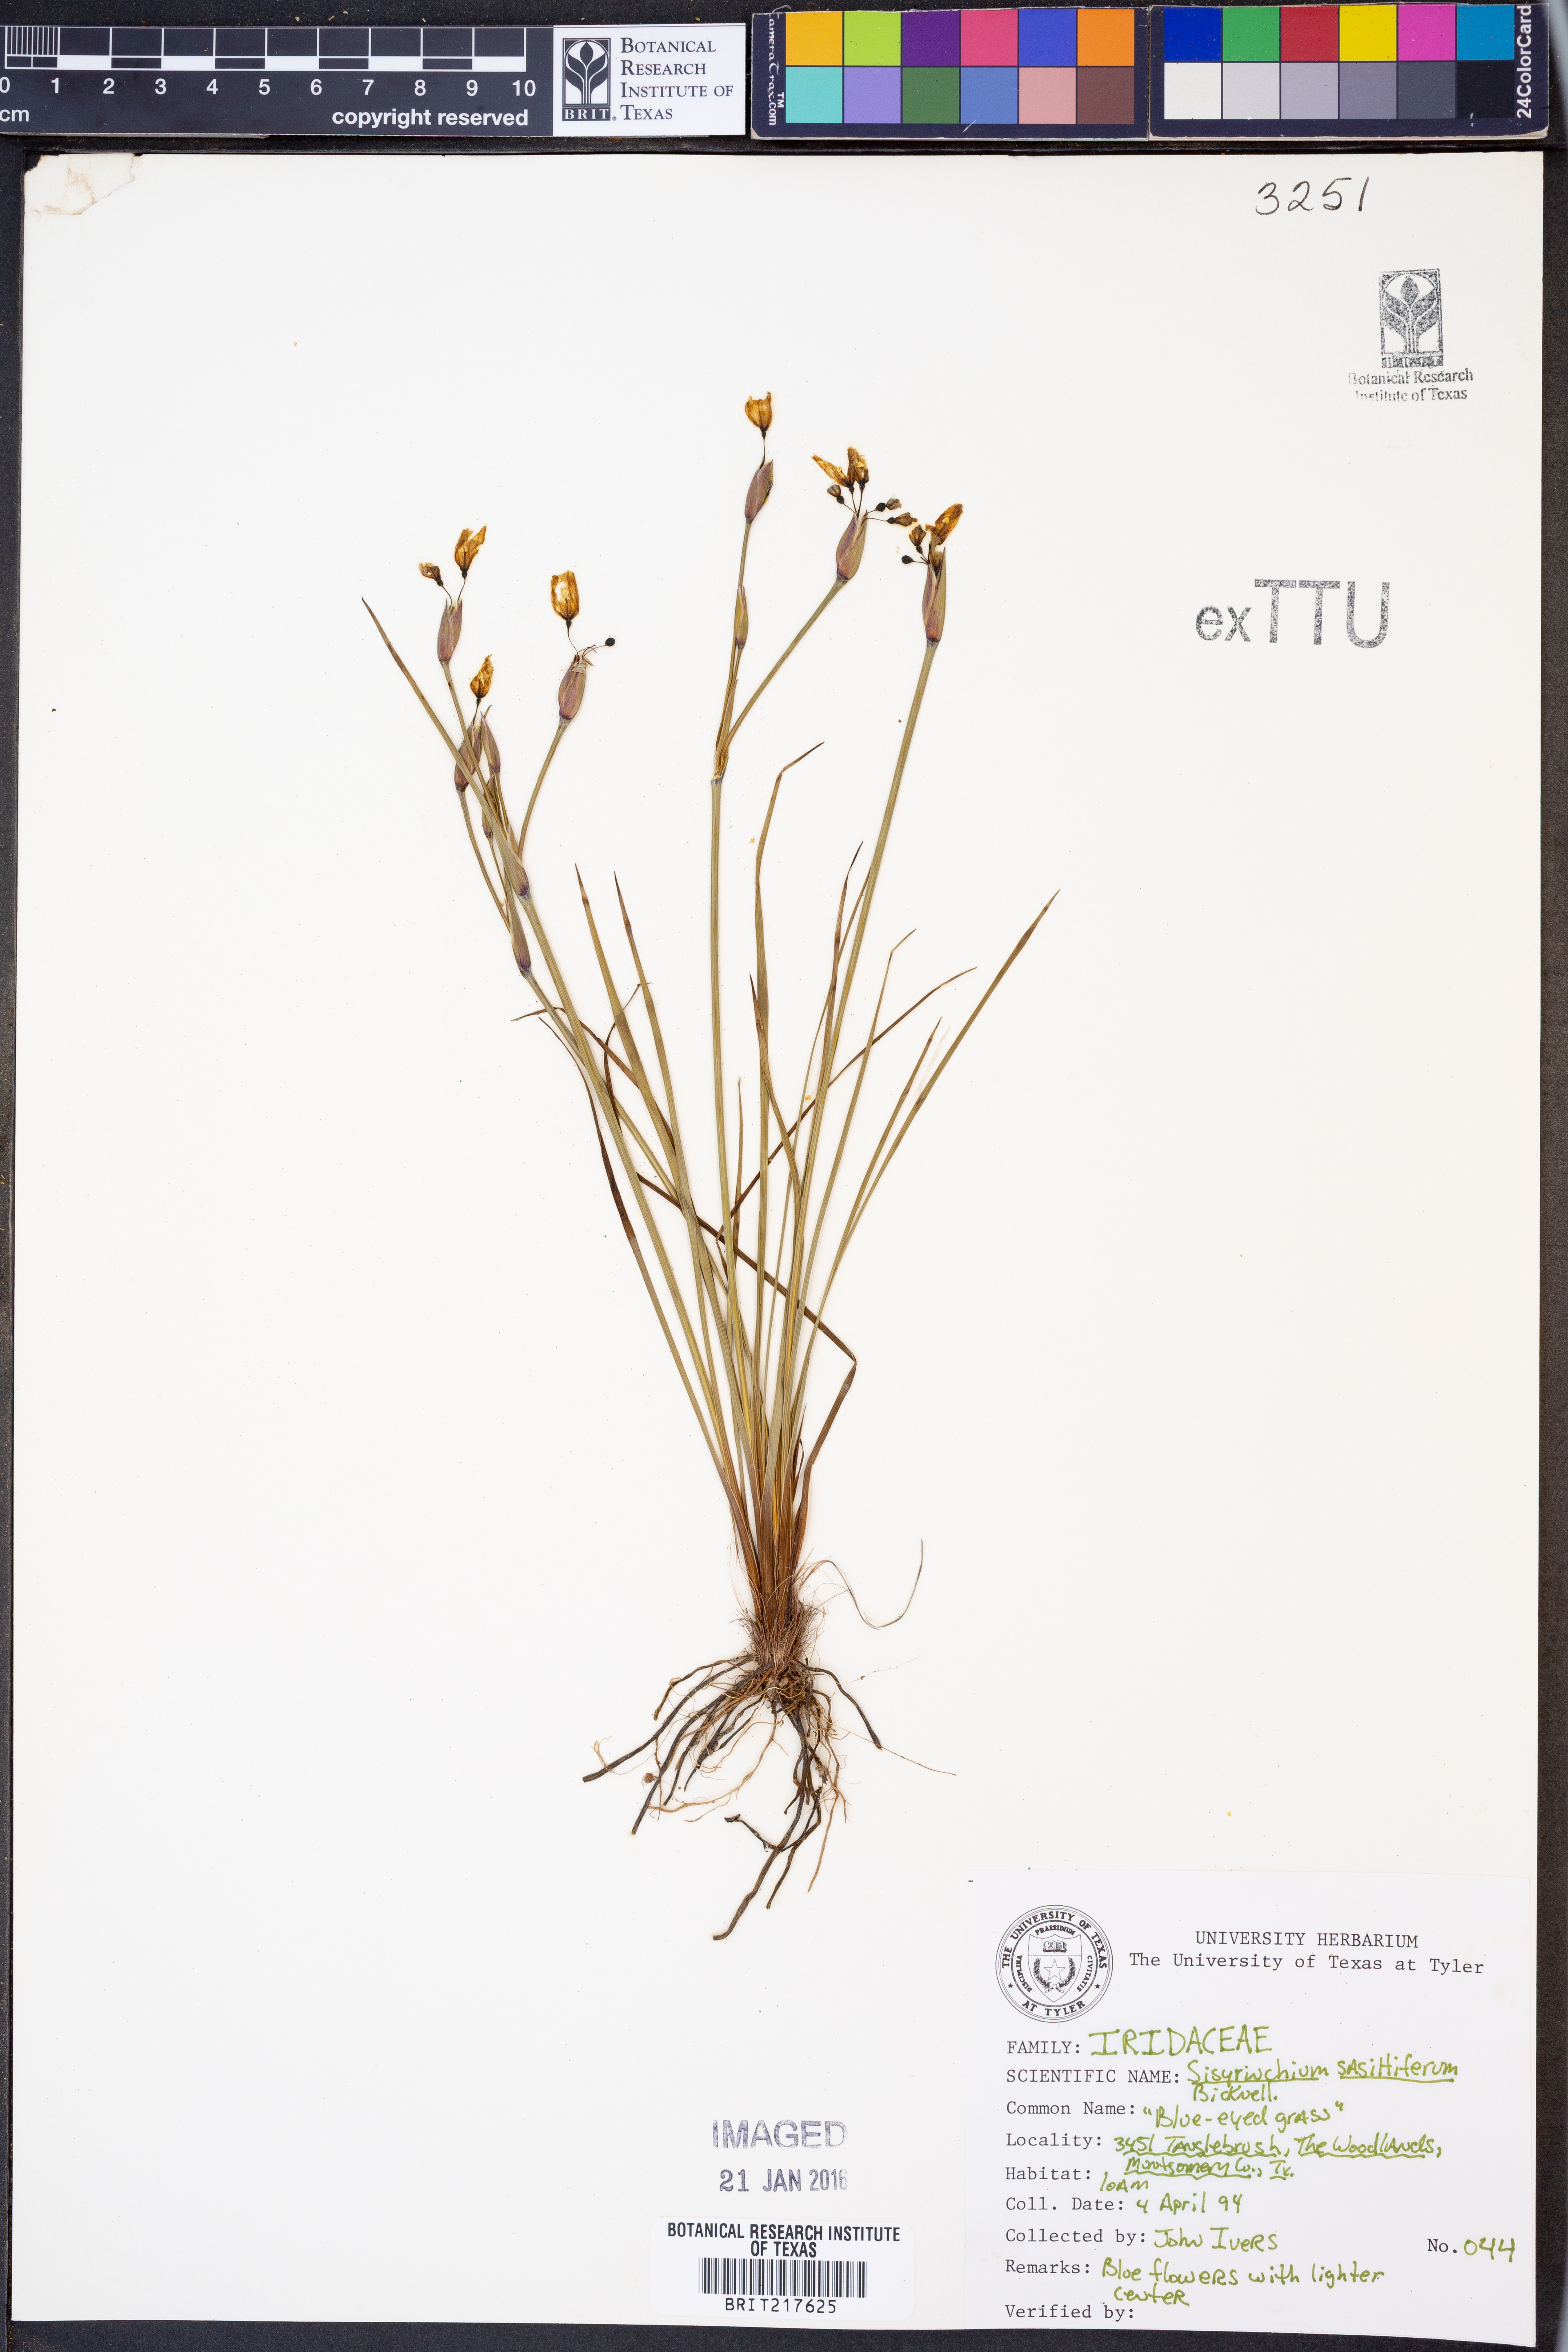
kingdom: Plantae
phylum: Tracheophyta
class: Liliopsida
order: Asparagales
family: Iridaceae
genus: Sisyrinchium
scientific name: Sisyrinchium sagittiferum
